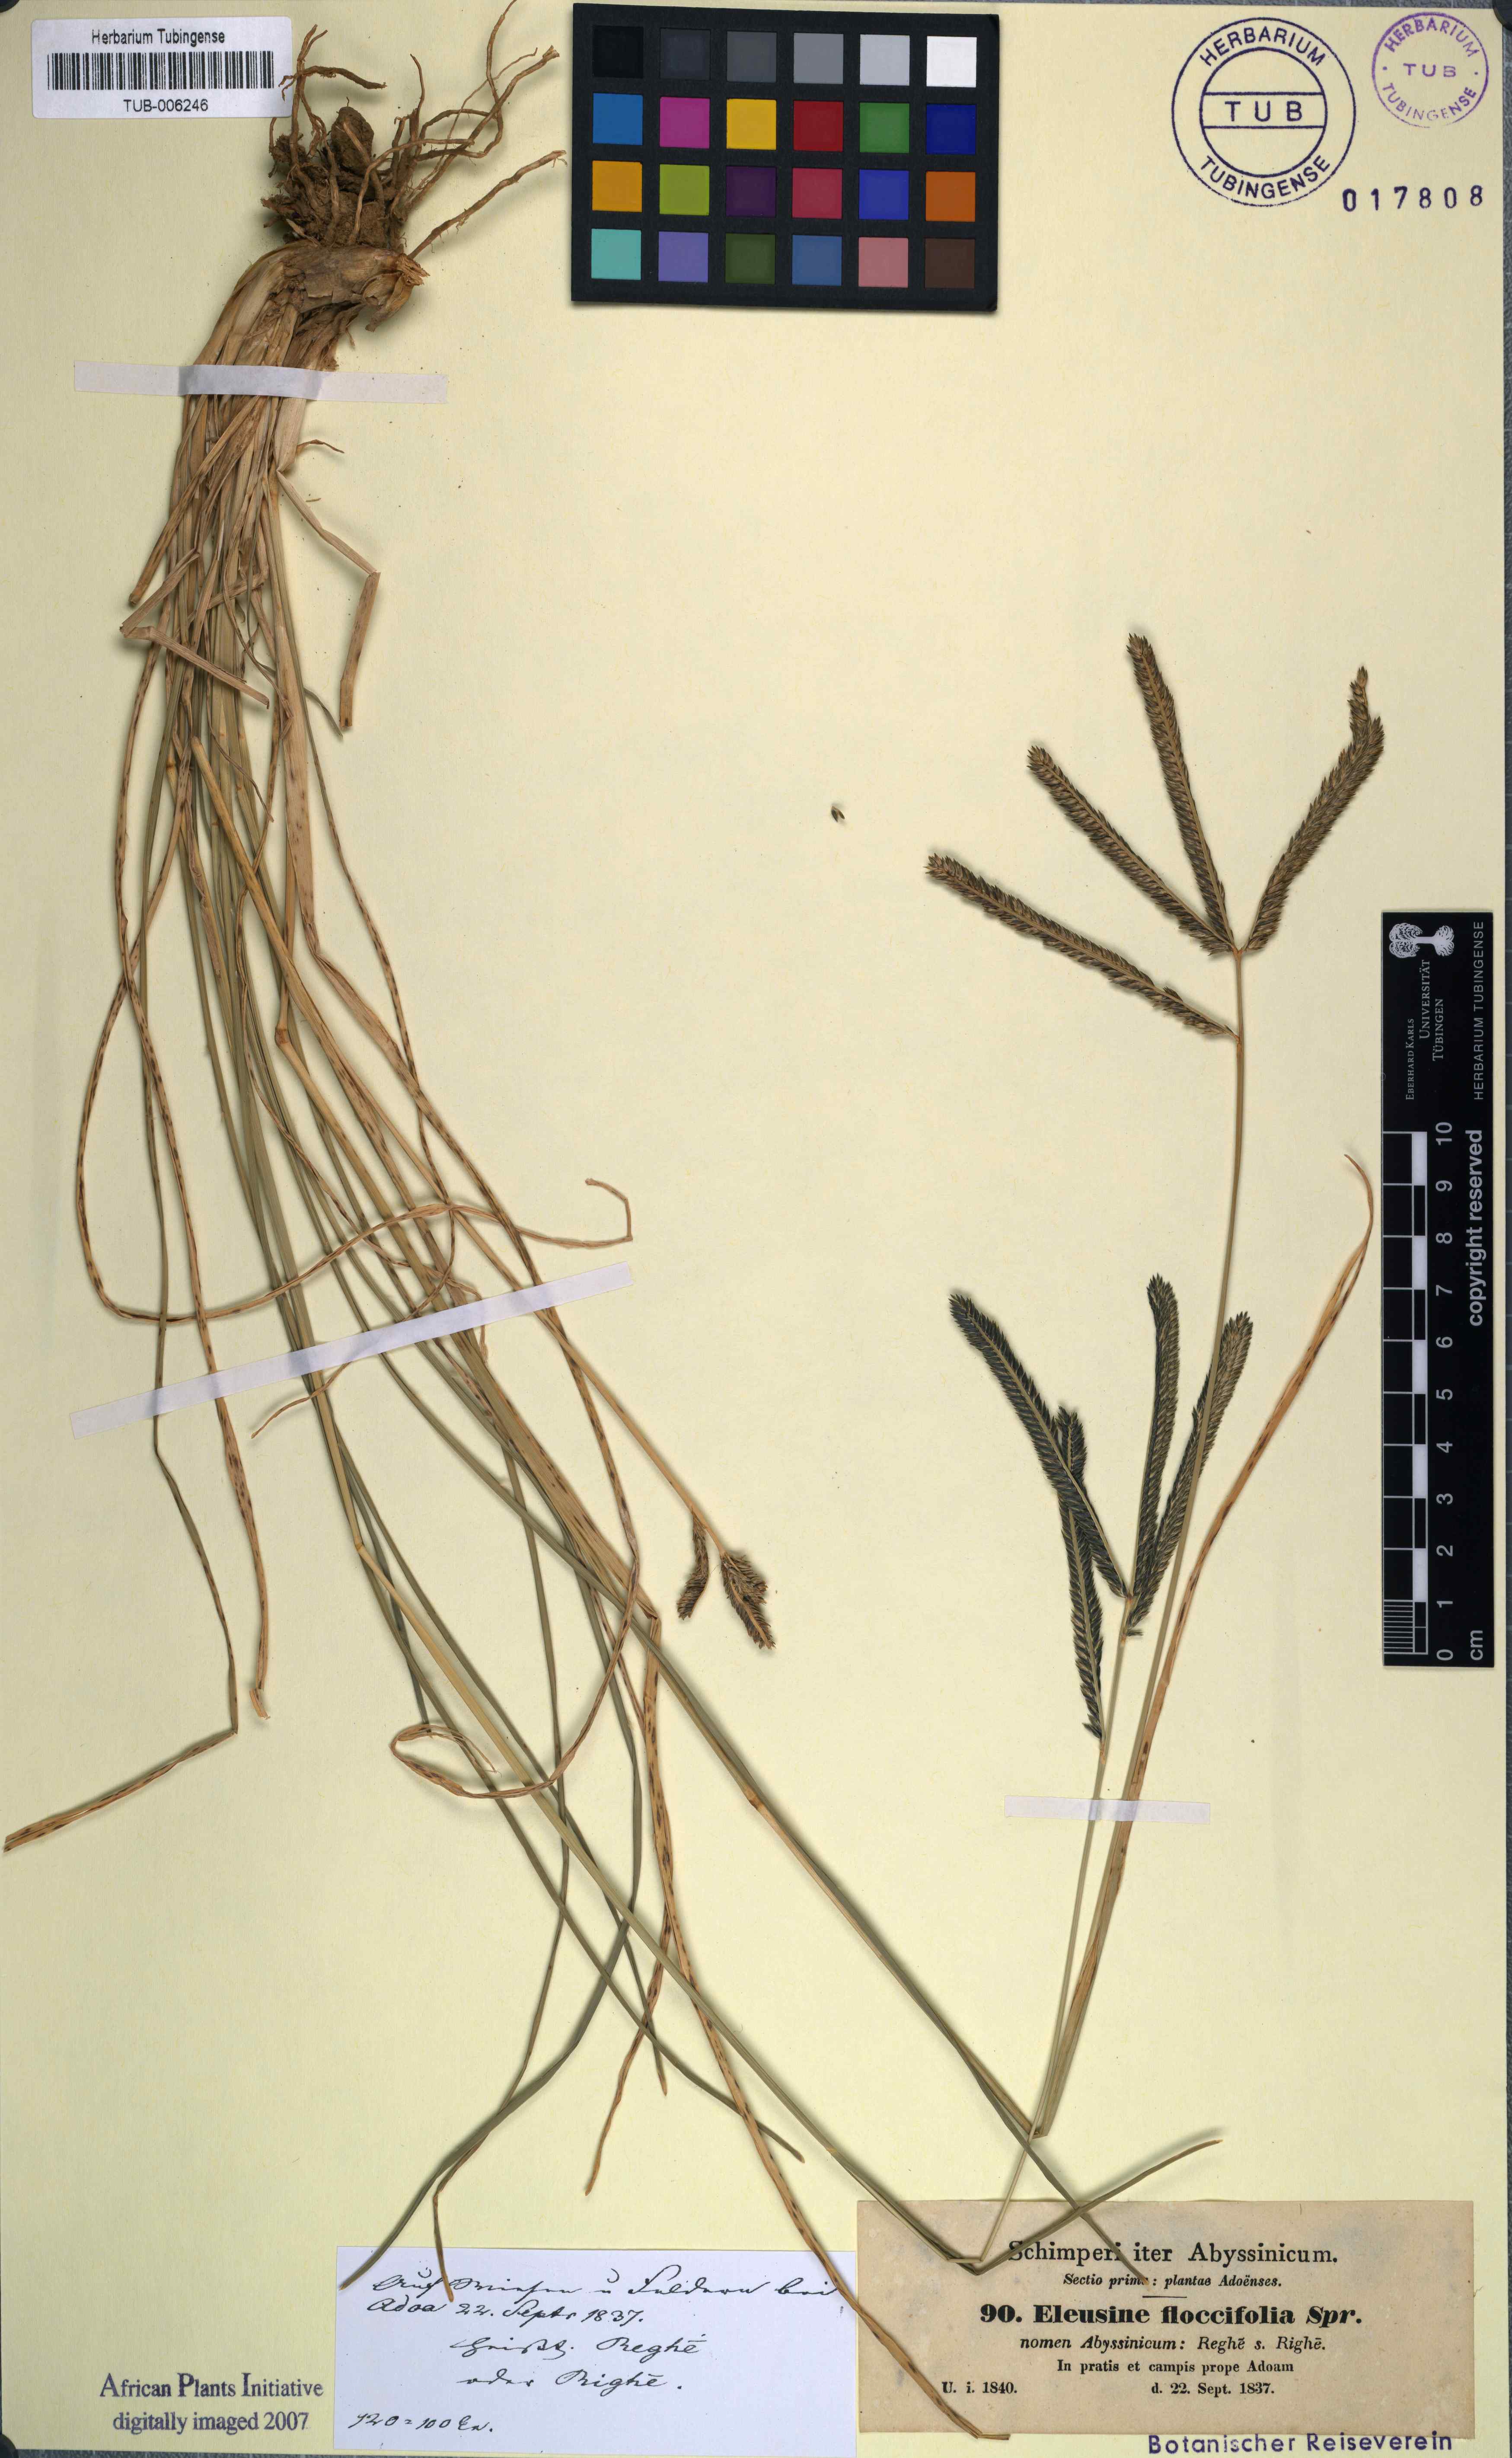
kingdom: Plantae
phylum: Tracheophyta
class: Liliopsida
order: Poales
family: Poaceae
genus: Eleusine
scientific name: Eleusine floccifolia
